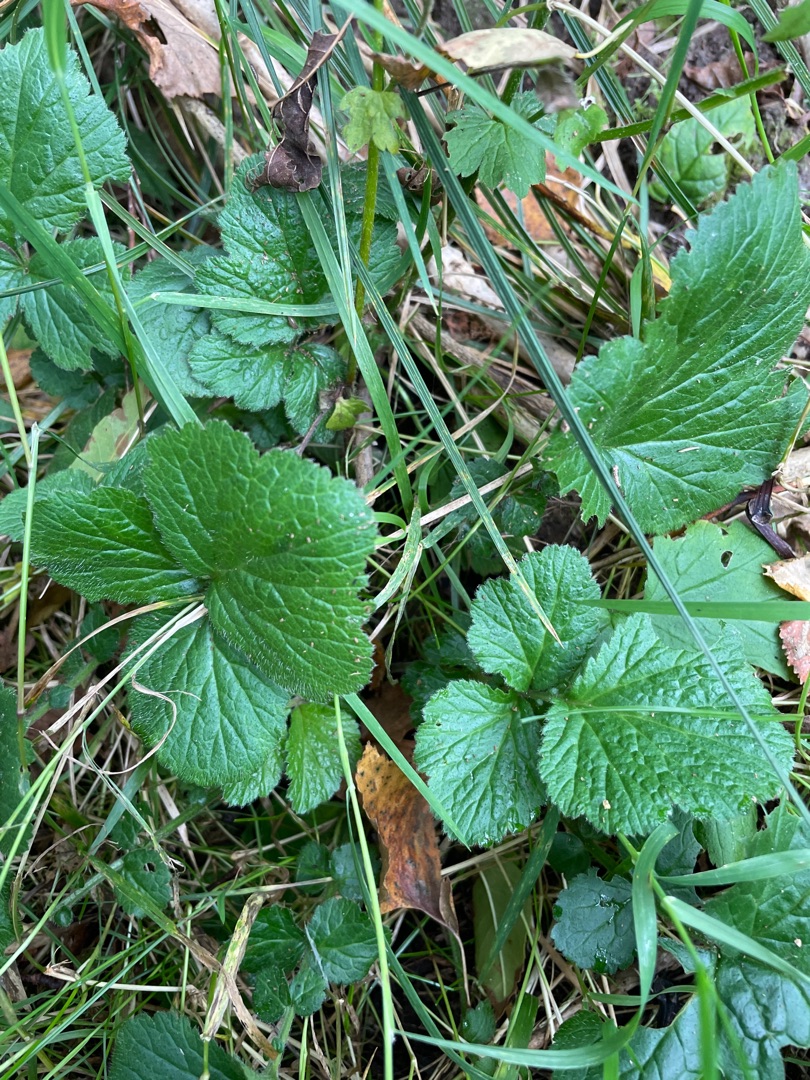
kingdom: Plantae
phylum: Tracheophyta
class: Magnoliopsida
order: Rosales
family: Rosaceae
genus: Geum
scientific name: Geum urbanum
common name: Feber-nellikerod
